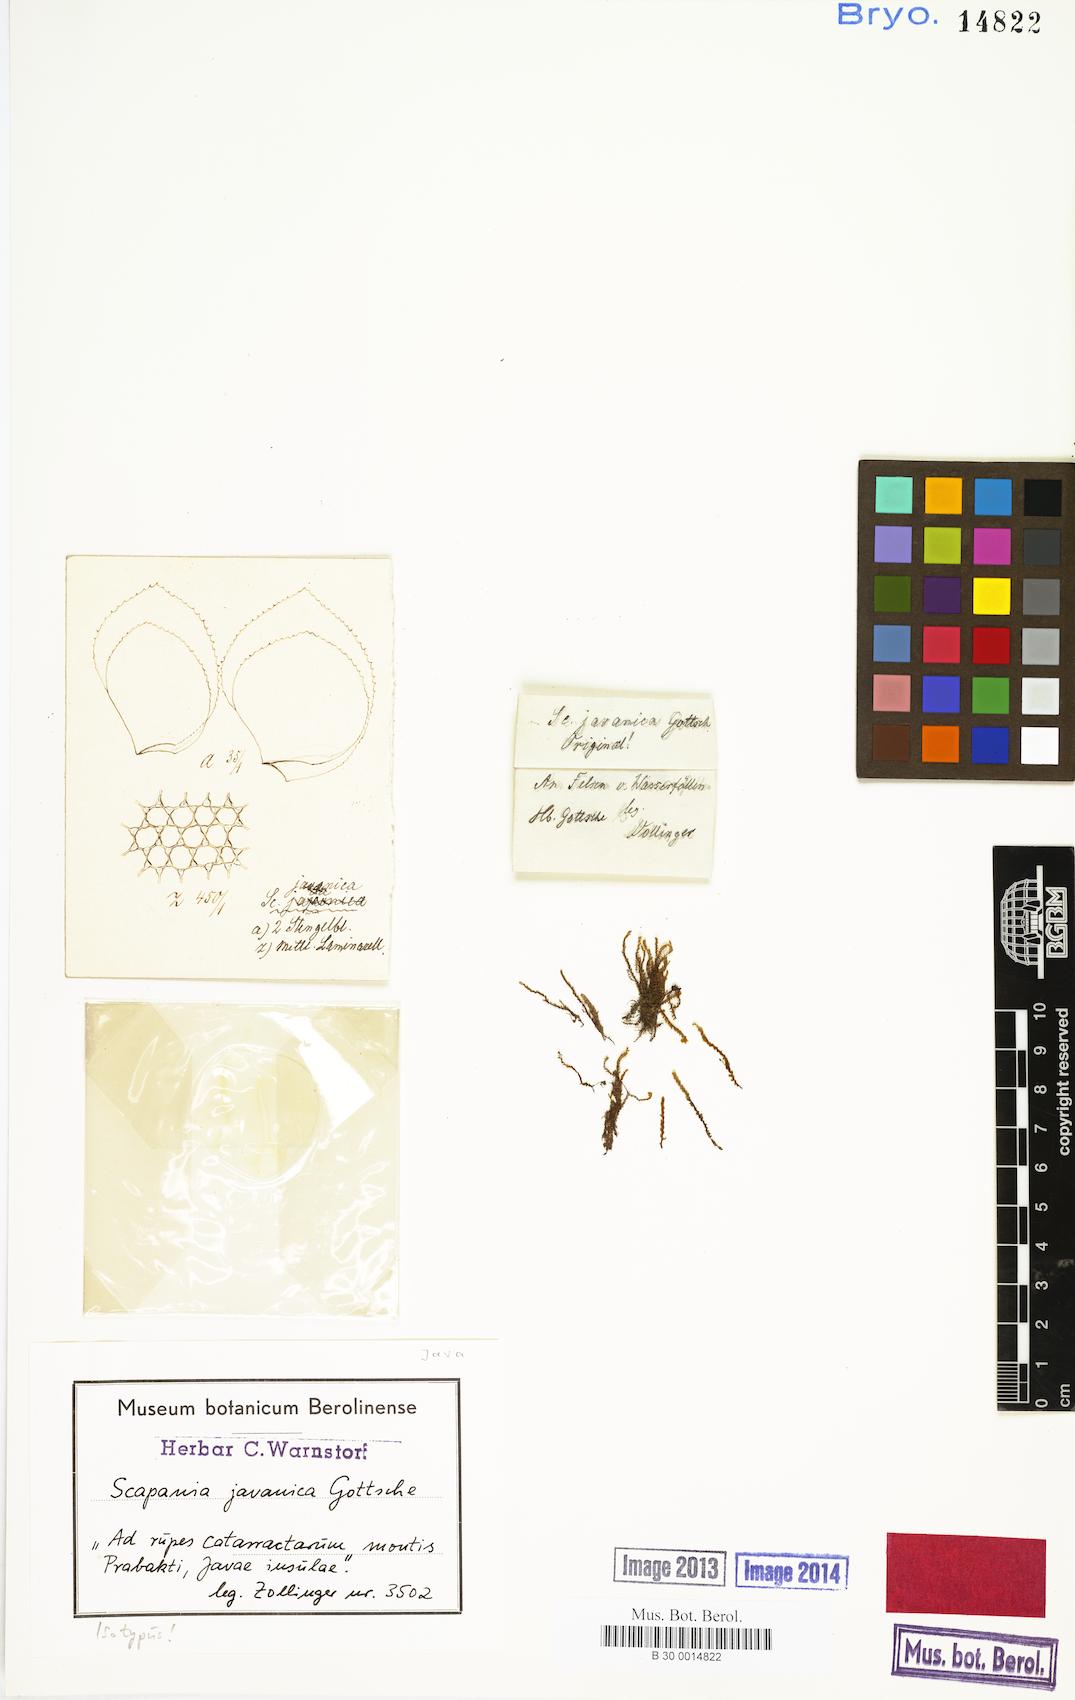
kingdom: Plantae
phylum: Marchantiophyta
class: Jungermanniopsida
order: Jungermanniales
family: Scapaniaceae
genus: Scapania
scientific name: Scapania javanica
